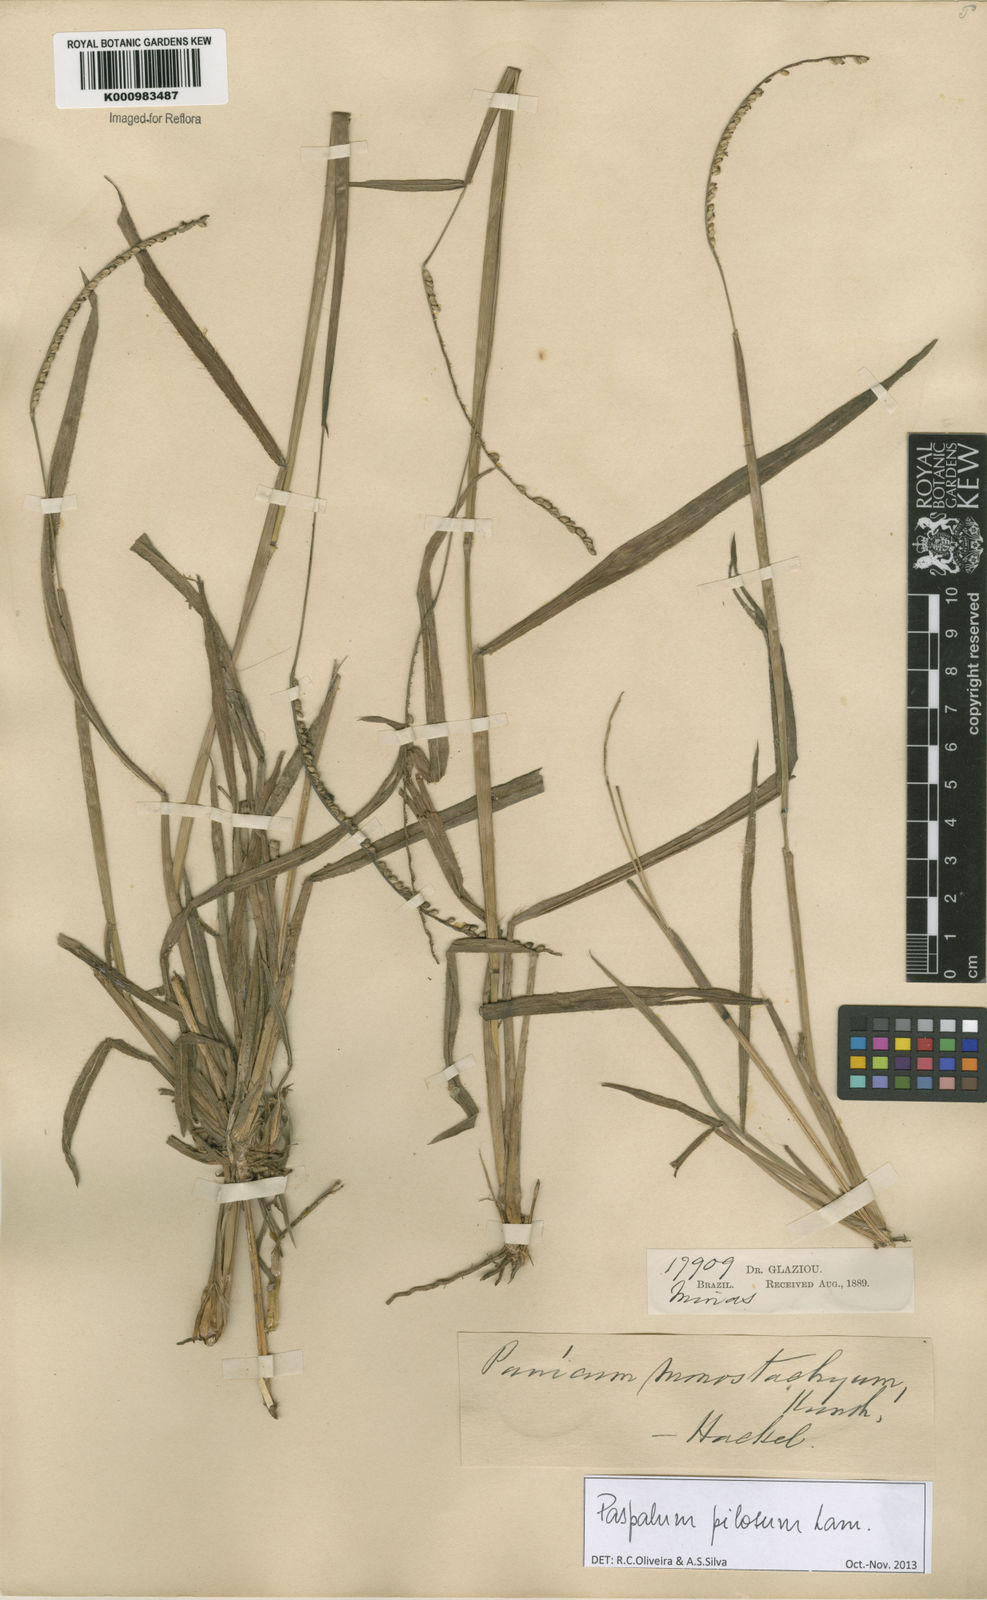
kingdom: Plantae
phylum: Tracheophyta
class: Liliopsida
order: Poales
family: Poaceae
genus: Paspalum
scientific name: Paspalum pilosum
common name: Crowngrass
